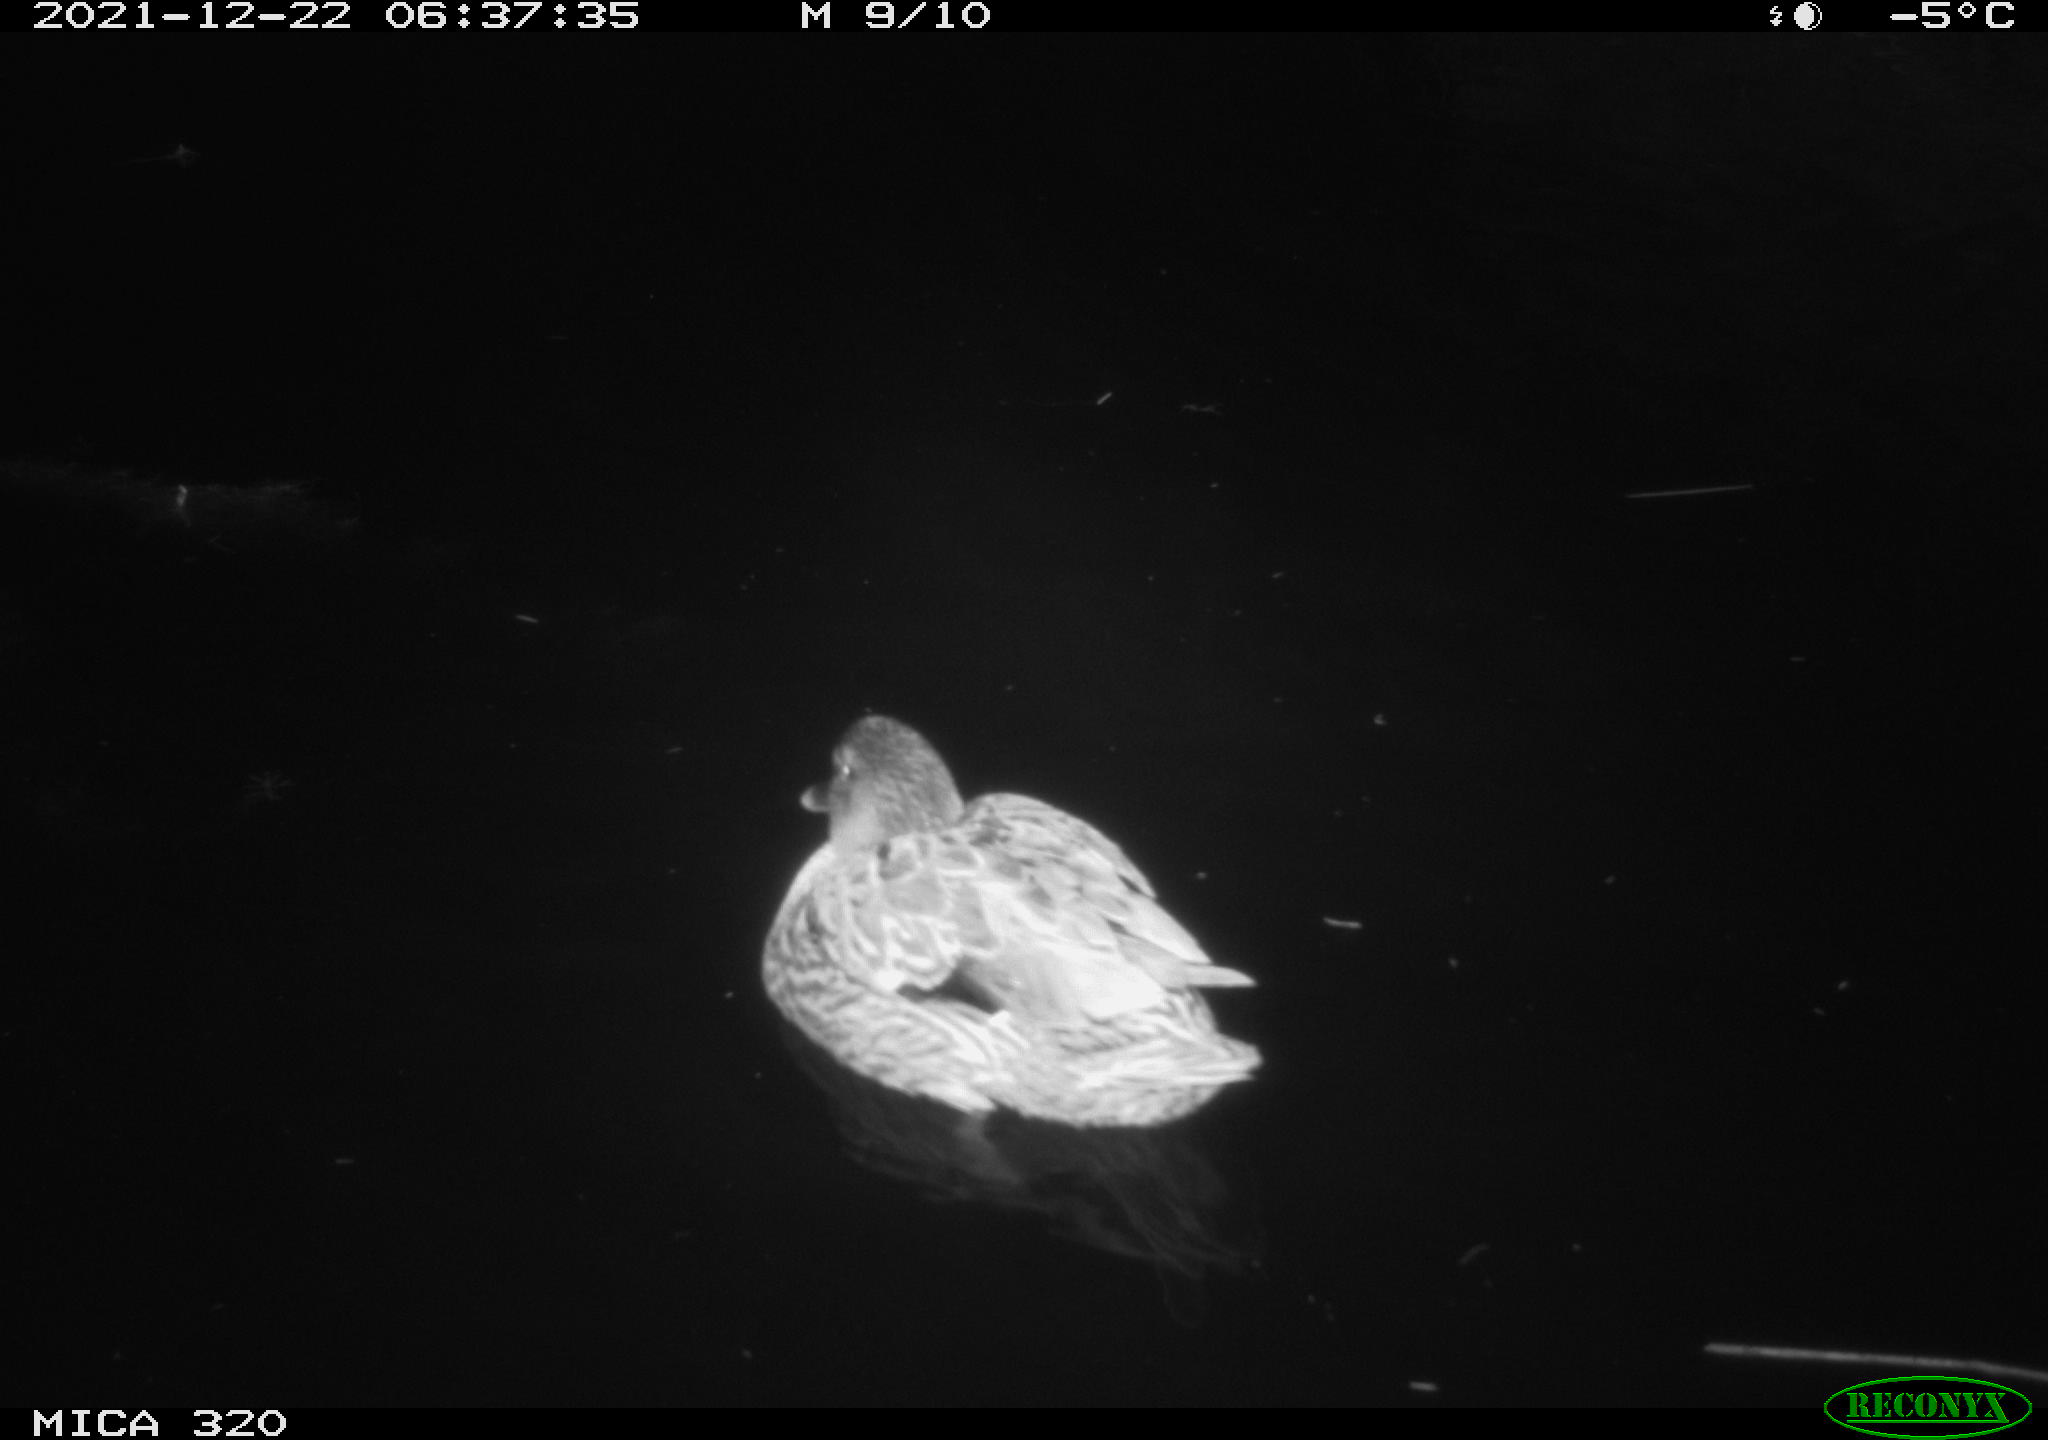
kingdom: Animalia
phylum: Chordata
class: Aves
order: Anseriformes
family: Anatidae
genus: Anas
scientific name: Anas platyrhynchos
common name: Mallard
